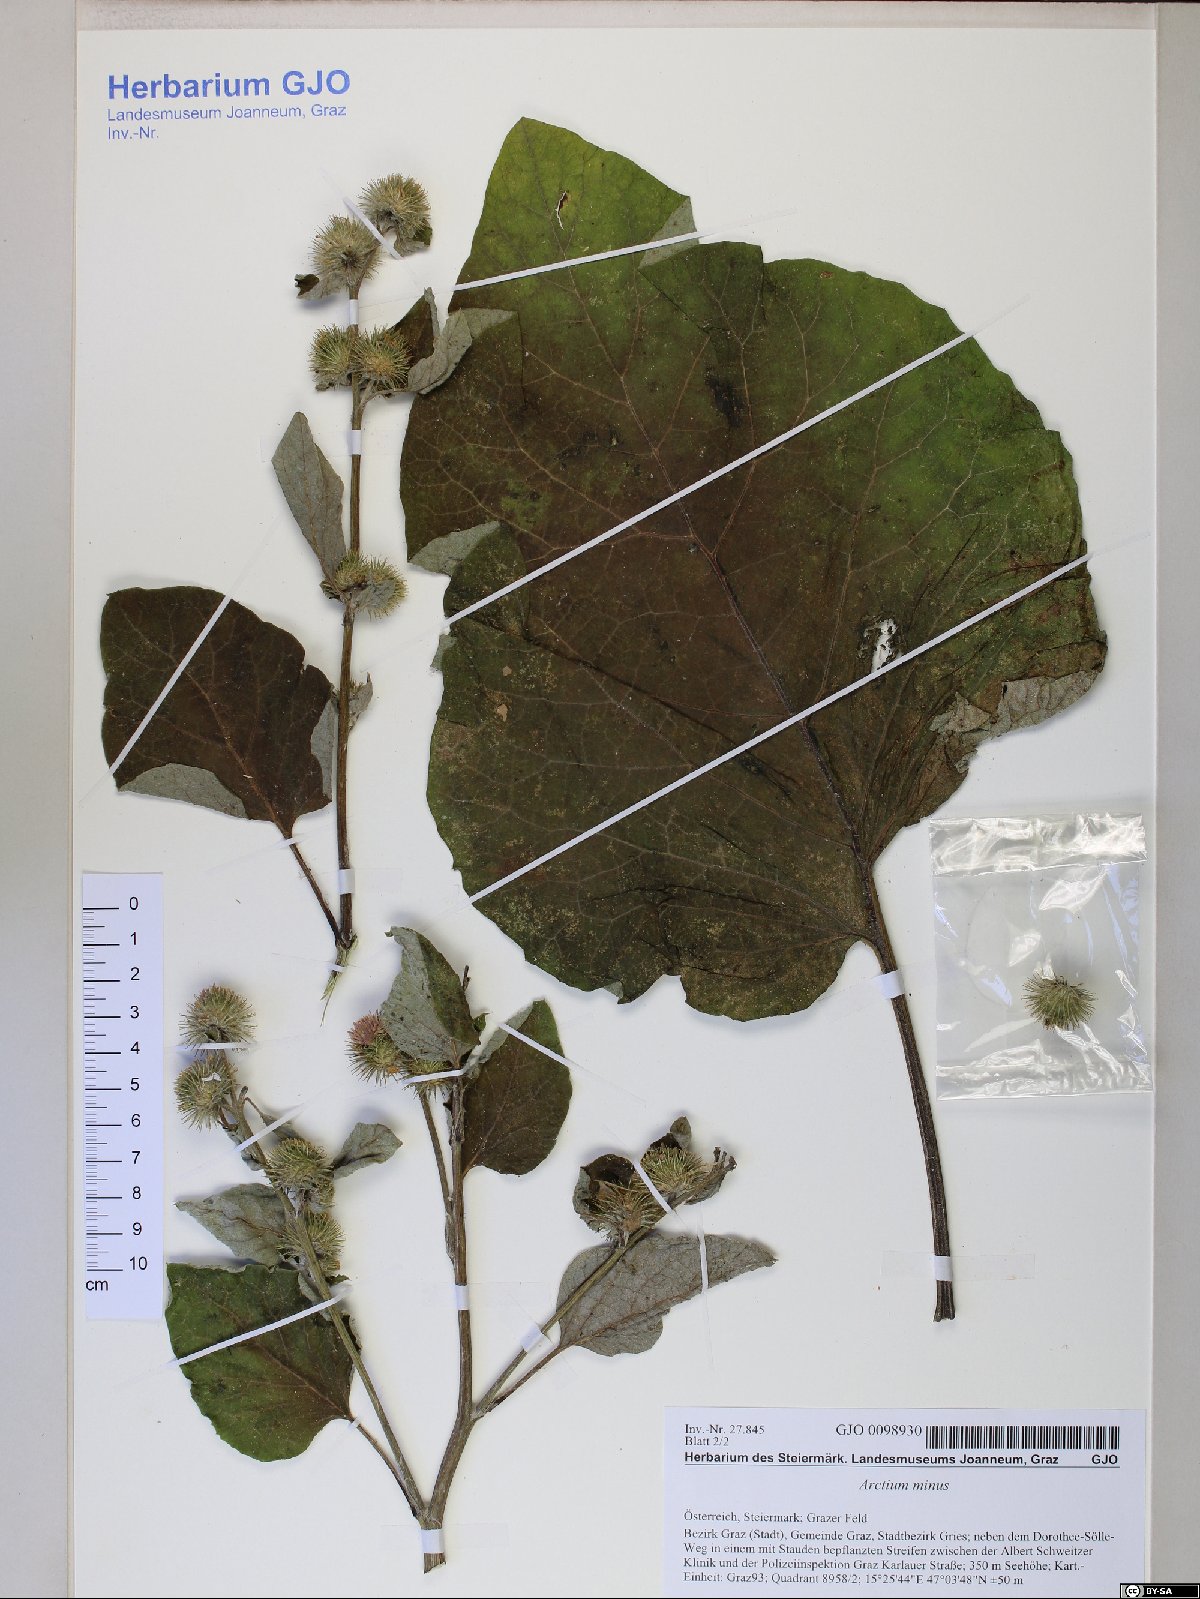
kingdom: Plantae
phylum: Tracheophyta
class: Magnoliopsida
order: Asterales
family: Asteraceae
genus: Arctium
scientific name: Arctium minus
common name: Lesser burdock
